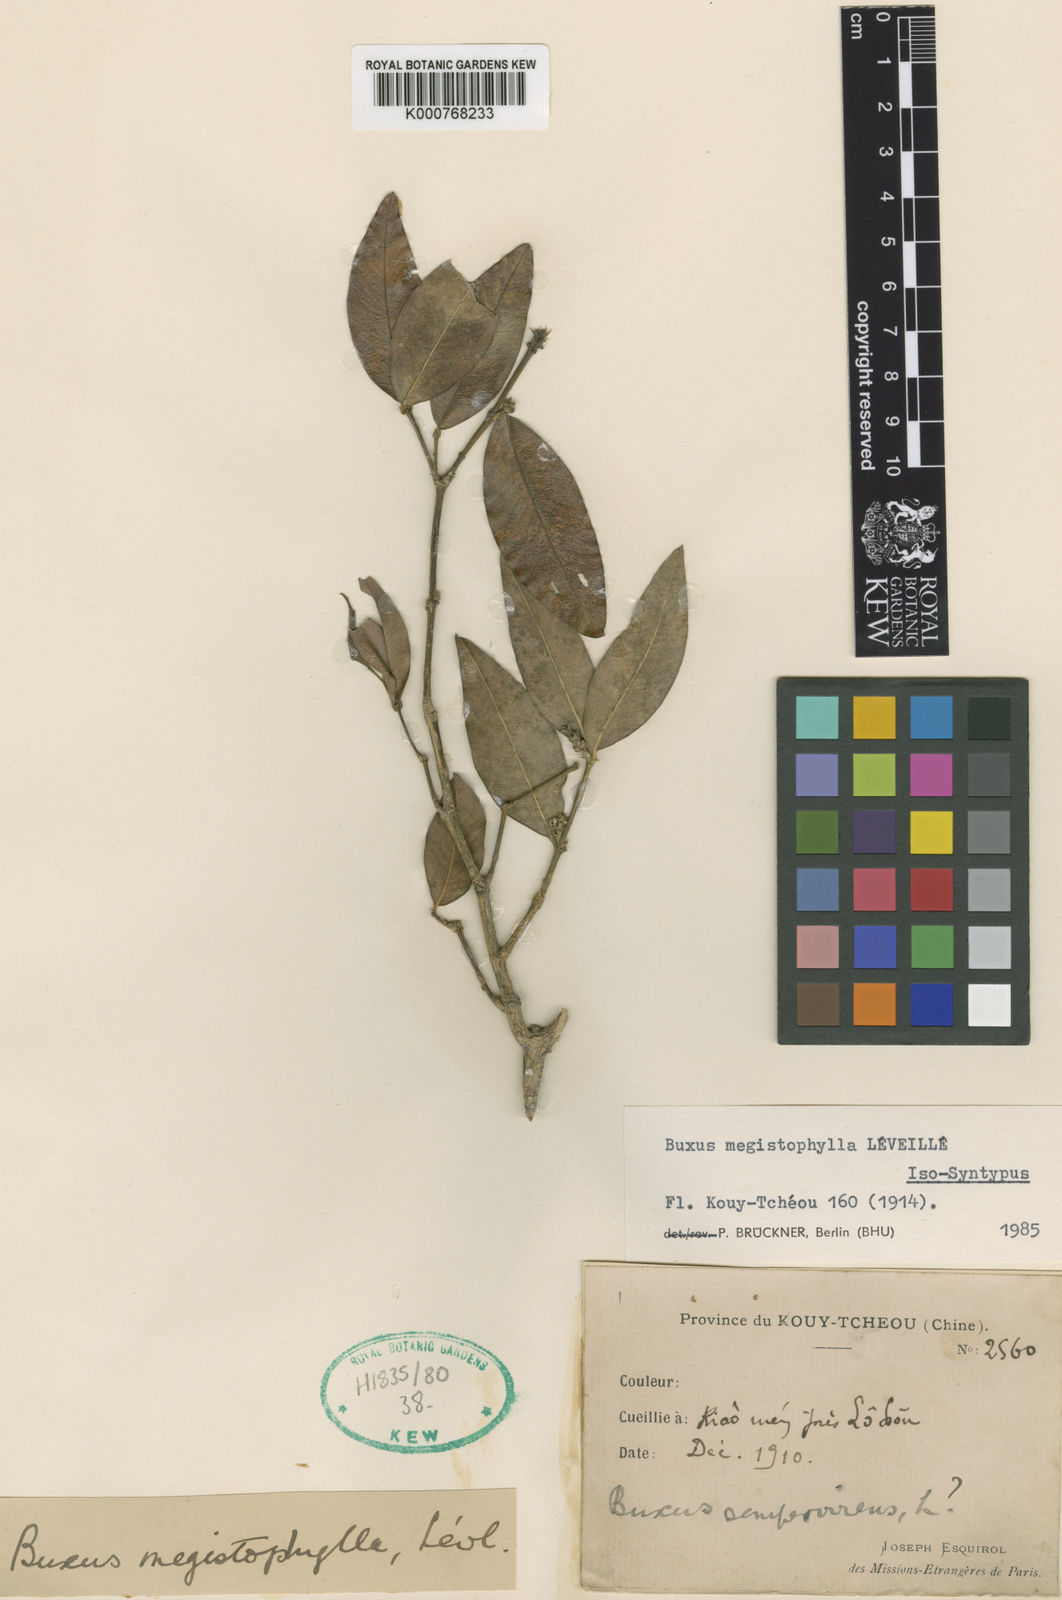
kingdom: Plantae
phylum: Tracheophyta
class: Magnoliopsida
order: Buxales
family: Buxaceae
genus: Buxus
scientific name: Buxus sempervirens
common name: Box
